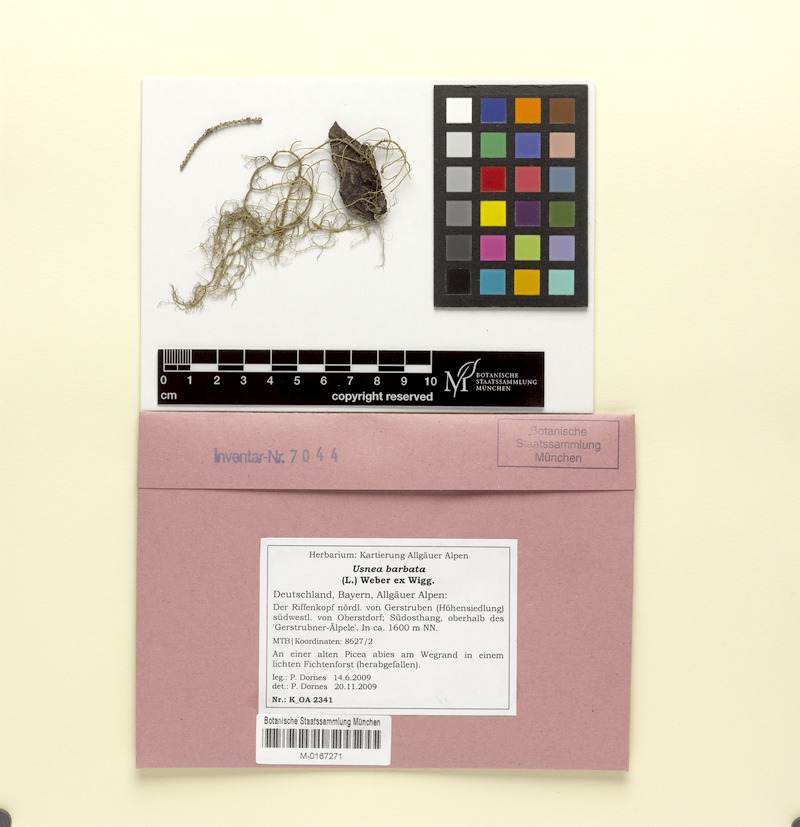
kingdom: Fungi
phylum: Ascomycota
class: Lecanoromycetes
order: Lecanorales
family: Parmeliaceae
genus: Usnea
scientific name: Usnea barbata
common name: Old man's beard lichen
